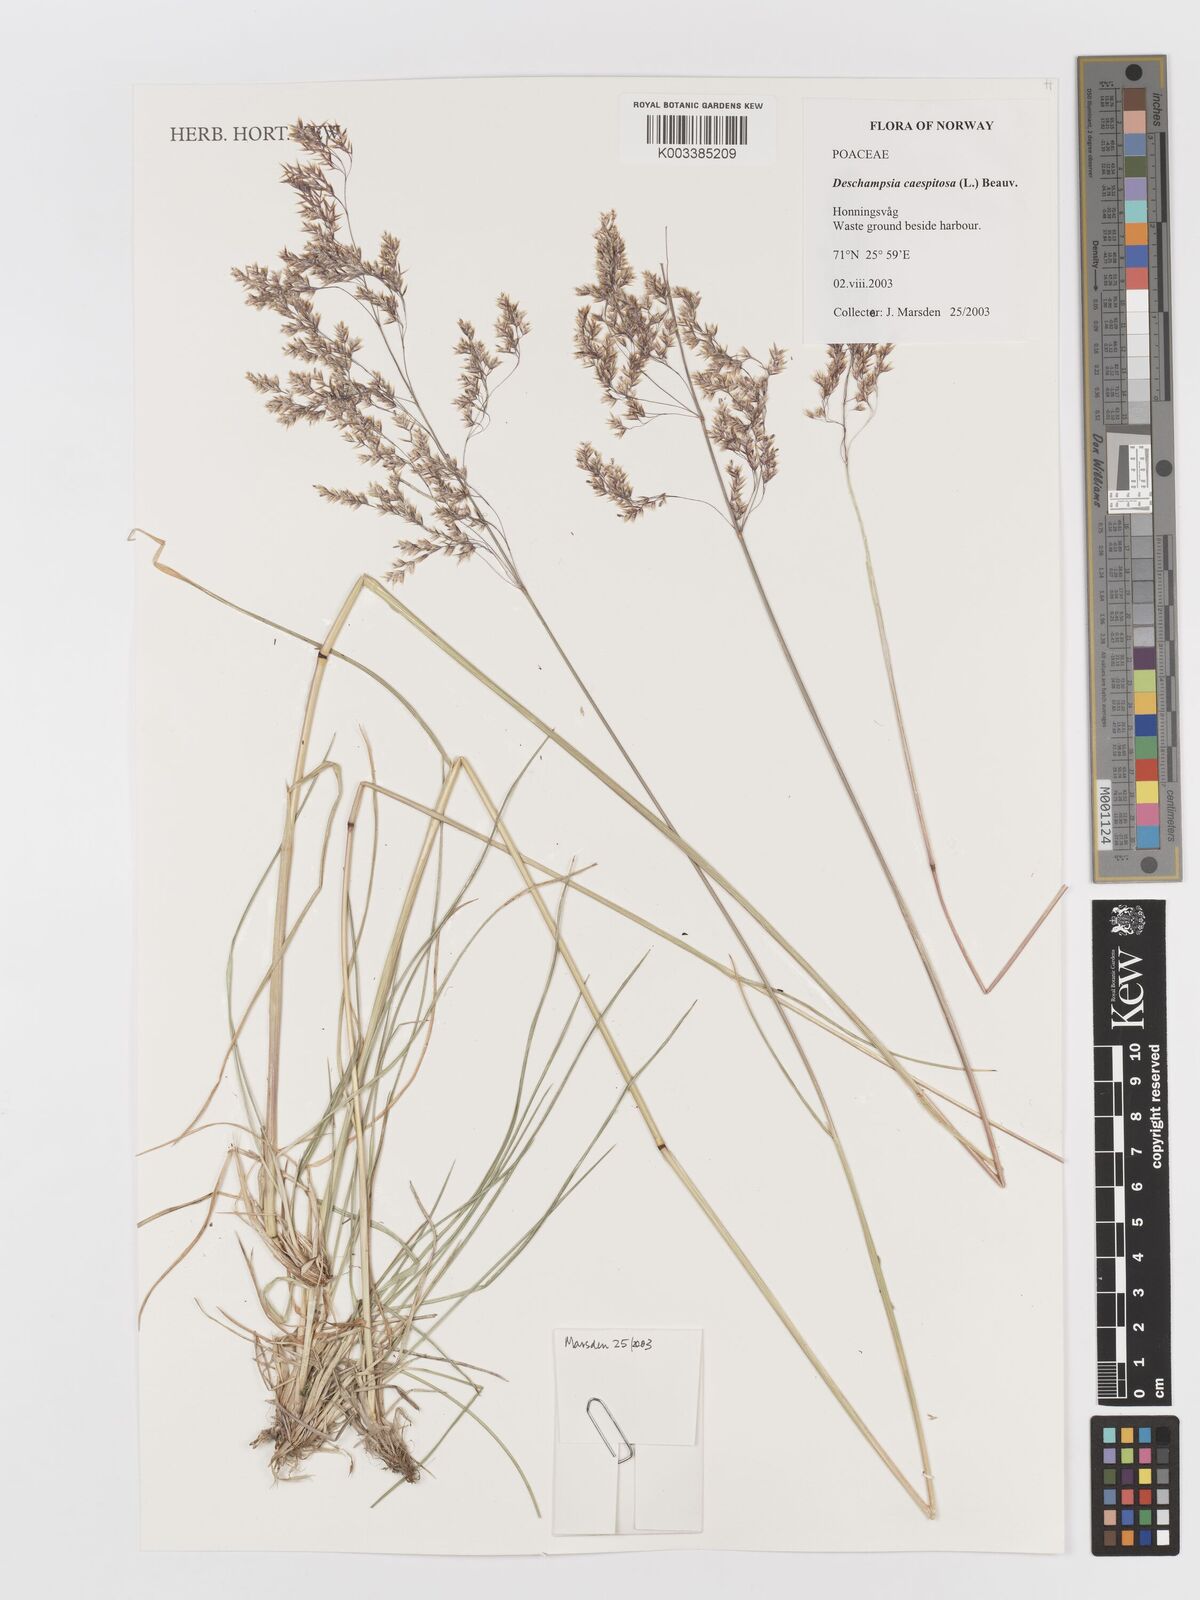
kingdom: Plantae
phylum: Tracheophyta
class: Liliopsida
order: Poales
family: Poaceae
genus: Deschampsia
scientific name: Deschampsia cespitosa
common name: Tufted hair-grass
